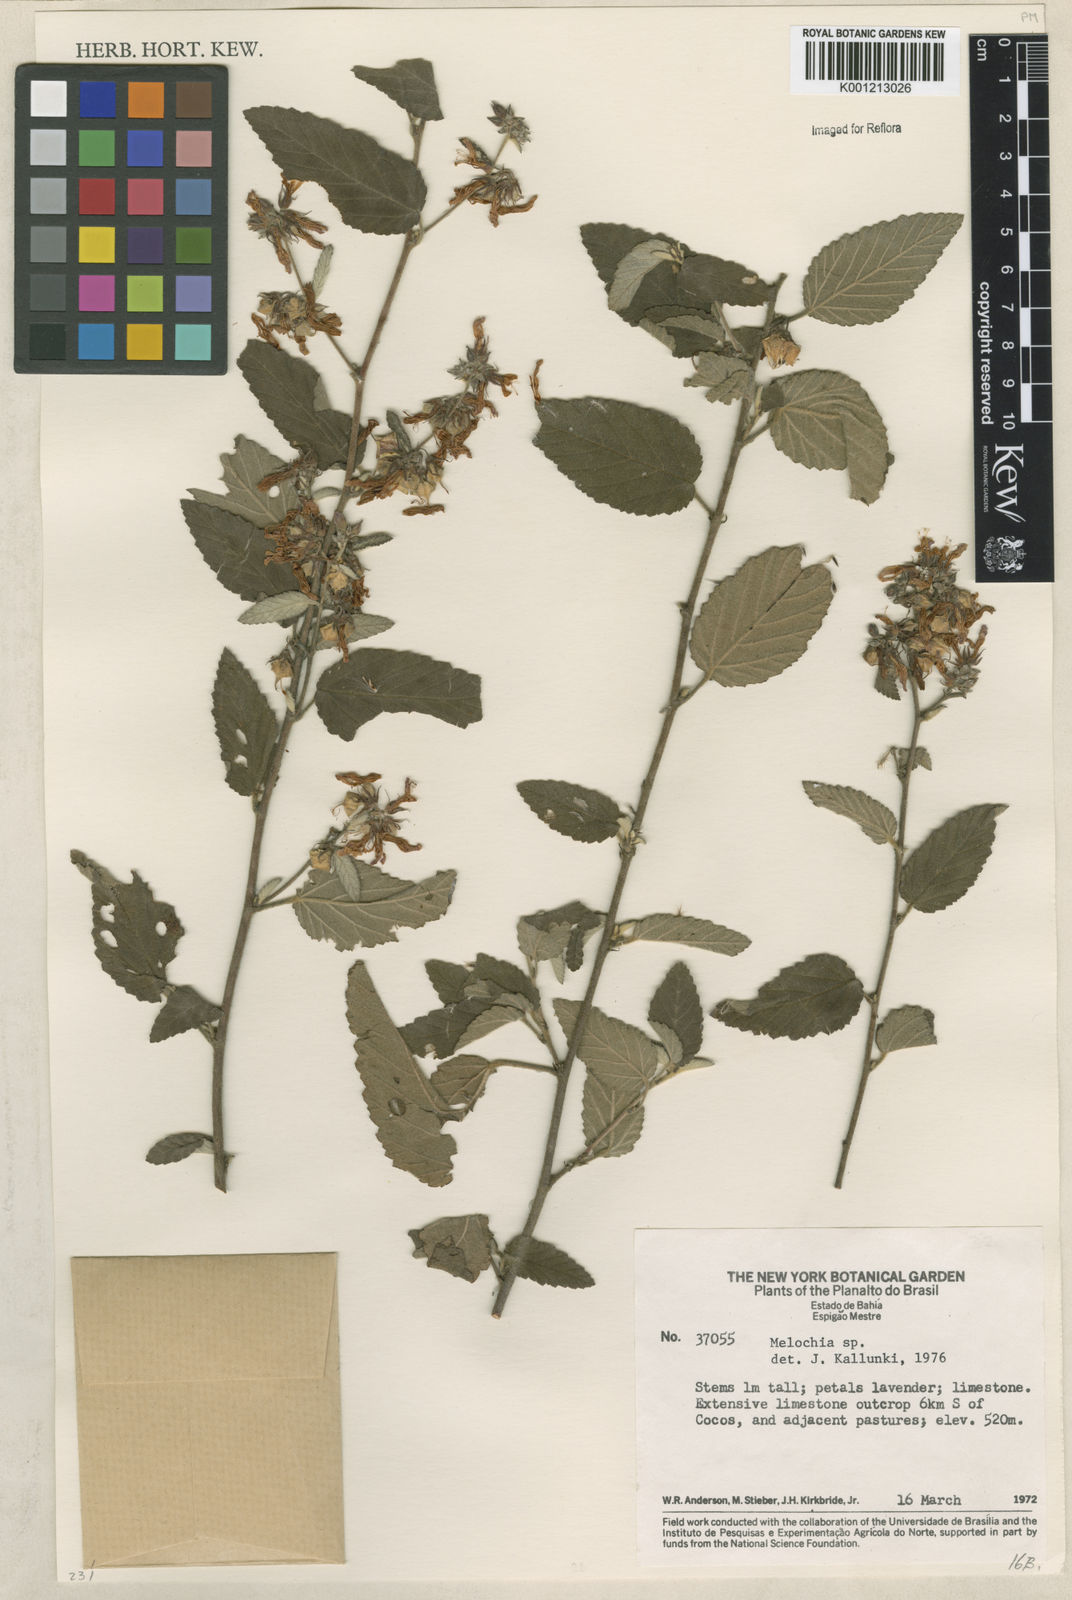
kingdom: Plantae
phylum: Tracheophyta
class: Magnoliopsida
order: Malvales
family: Malvaceae
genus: Melochia
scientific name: Melochia
